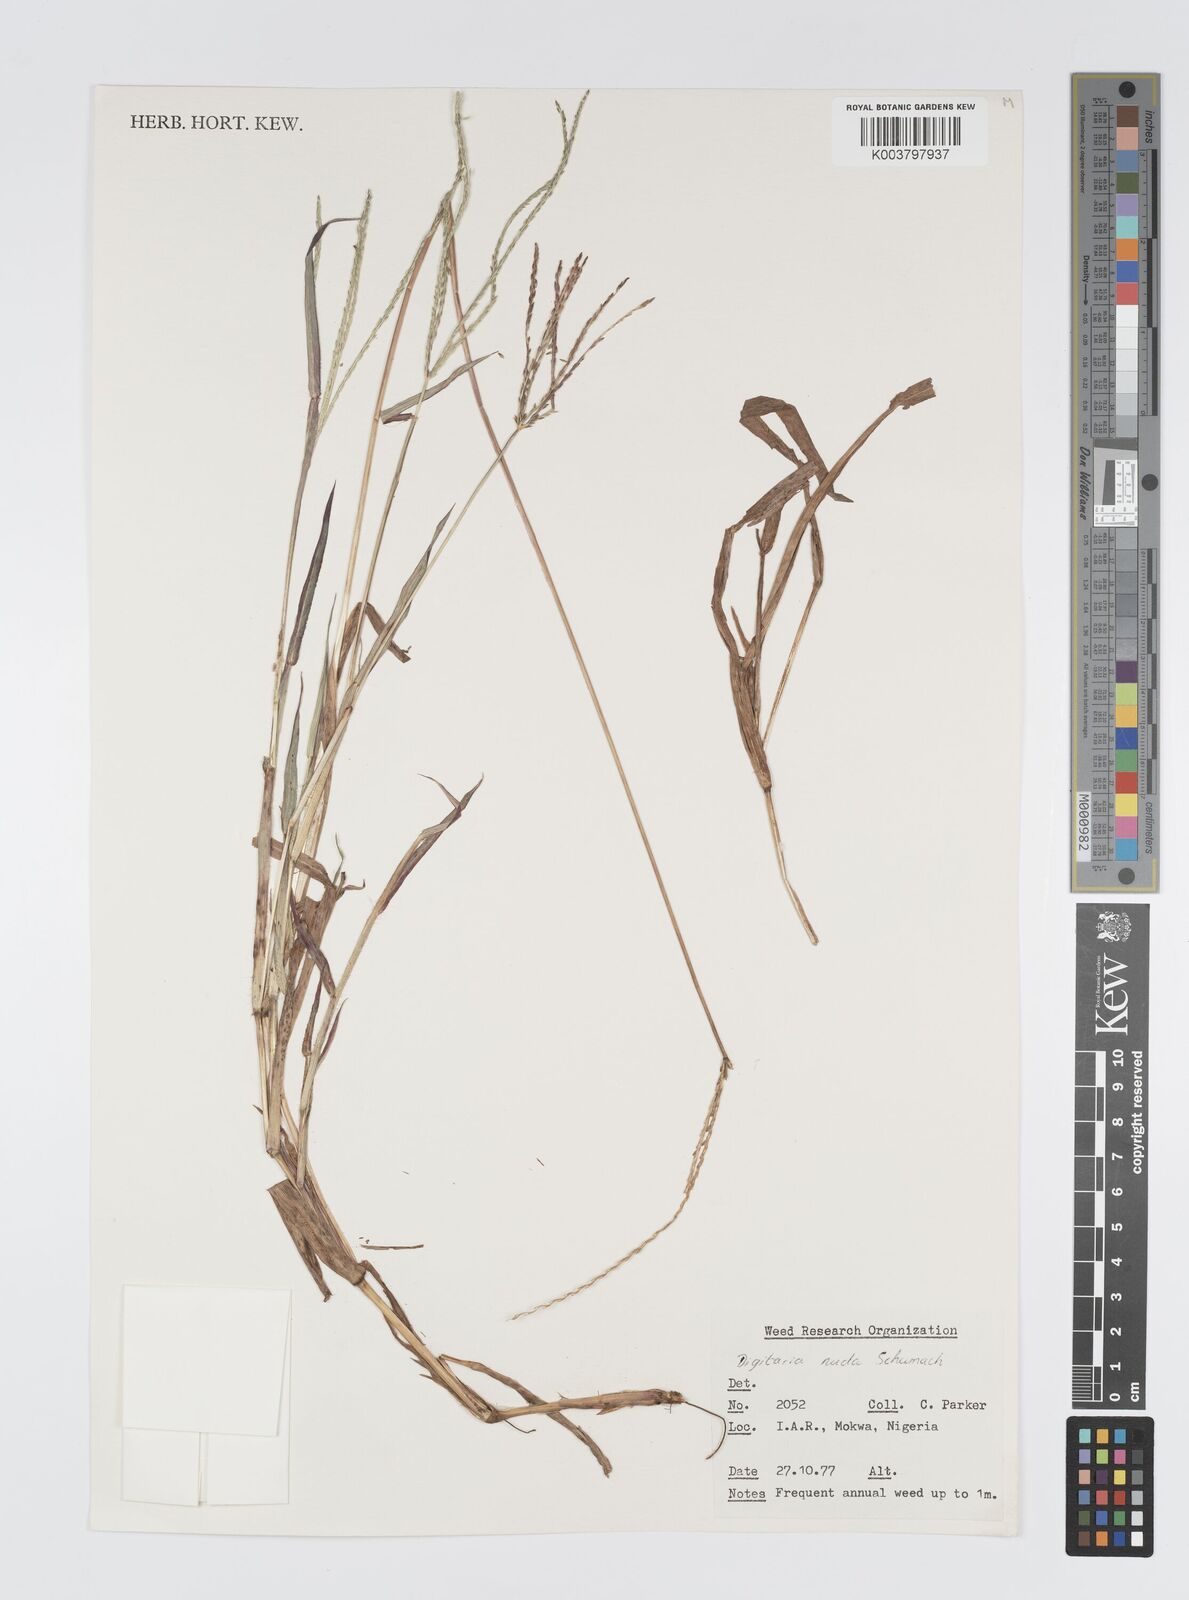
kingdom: Plantae
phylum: Tracheophyta
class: Liliopsida
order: Poales
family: Poaceae
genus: Digitaria
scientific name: Digitaria nuda
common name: Naked crabgrass
